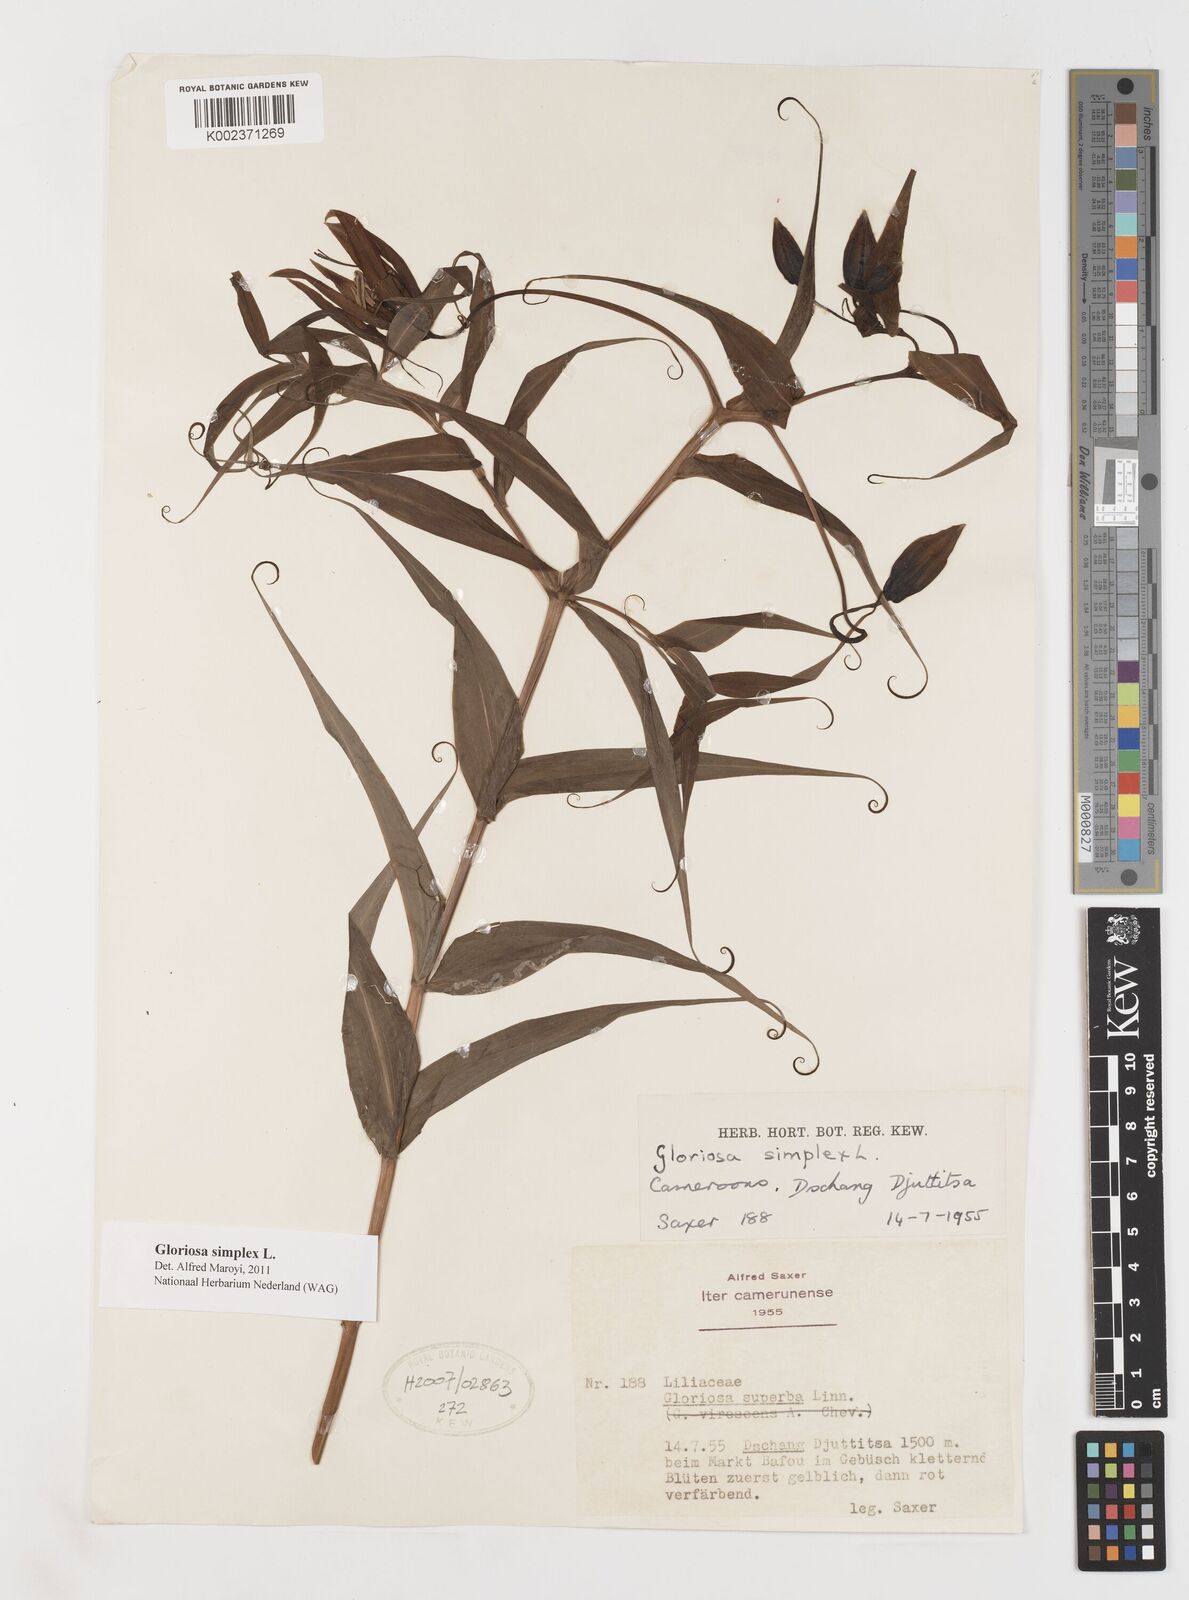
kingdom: Plantae
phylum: Tracheophyta
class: Liliopsida
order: Liliales
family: Colchicaceae
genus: Gloriosa
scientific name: Gloriosa simplex
